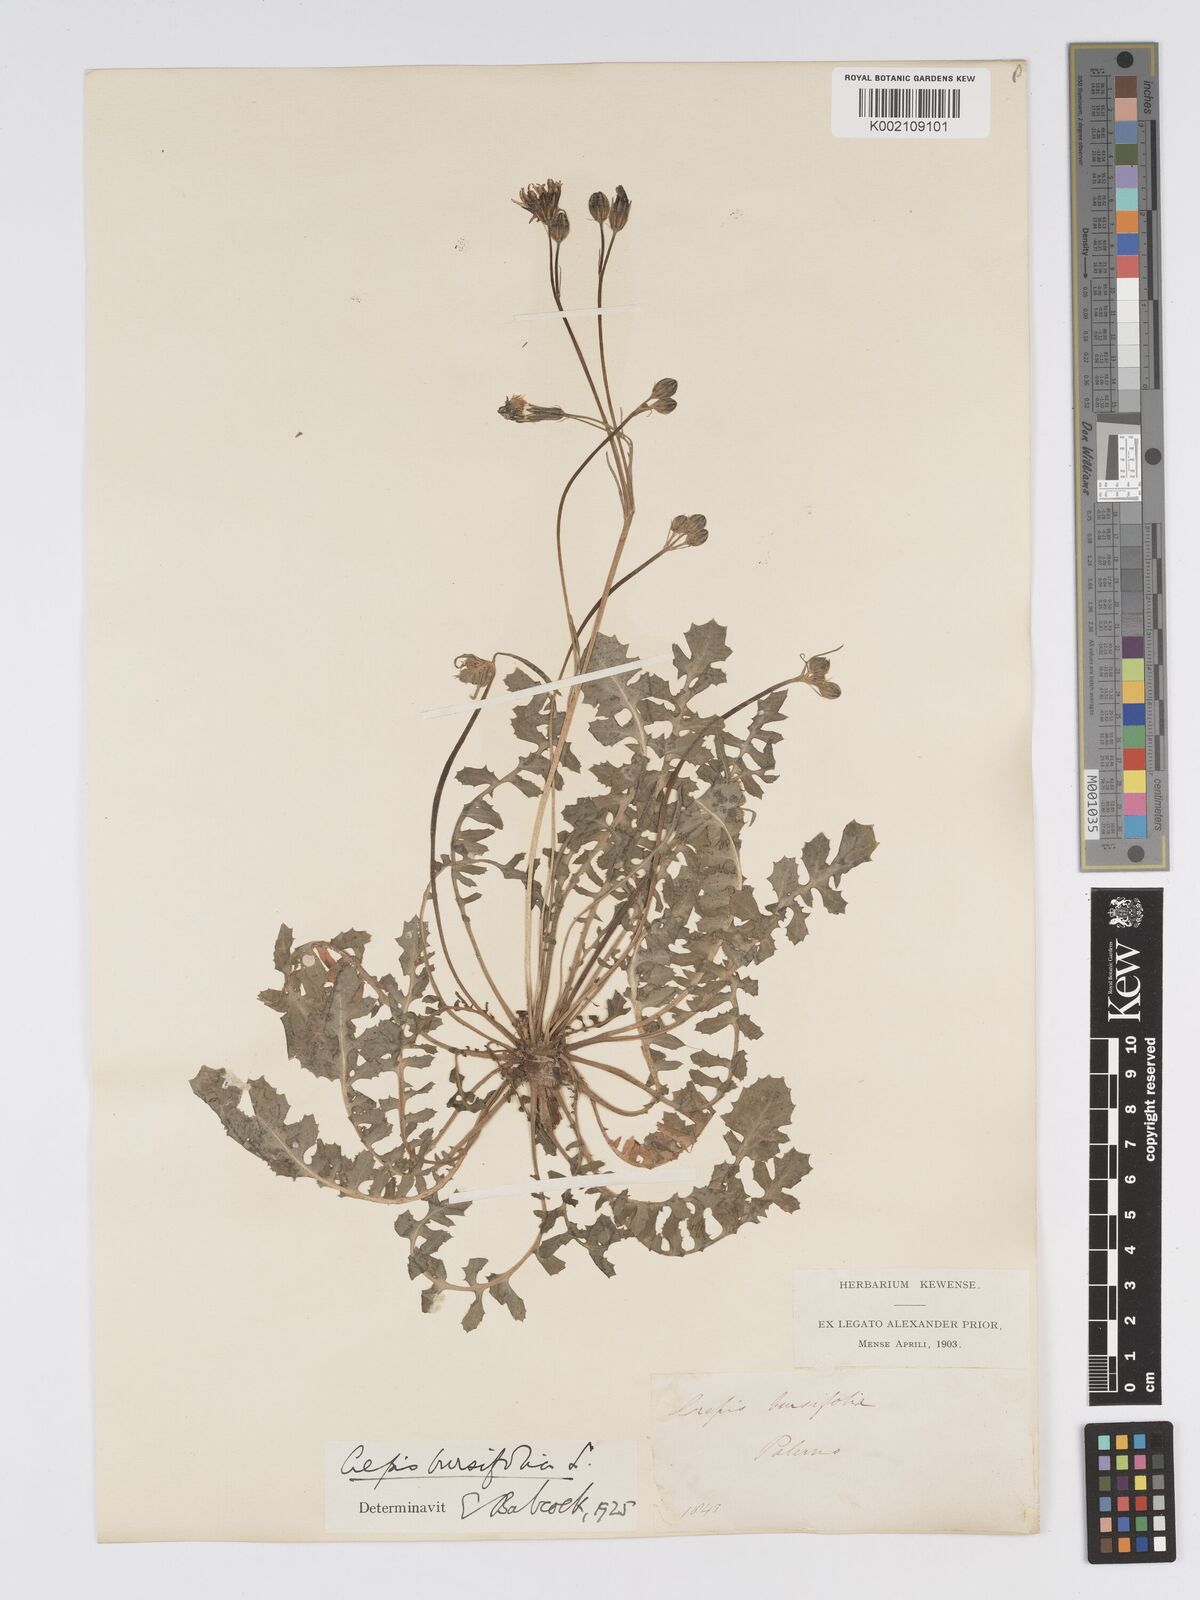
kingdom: Plantae
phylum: Tracheophyta
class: Magnoliopsida
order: Asterales
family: Asteraceae
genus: Crepis
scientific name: Crepis bursifolia
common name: Italian hawksbeard
